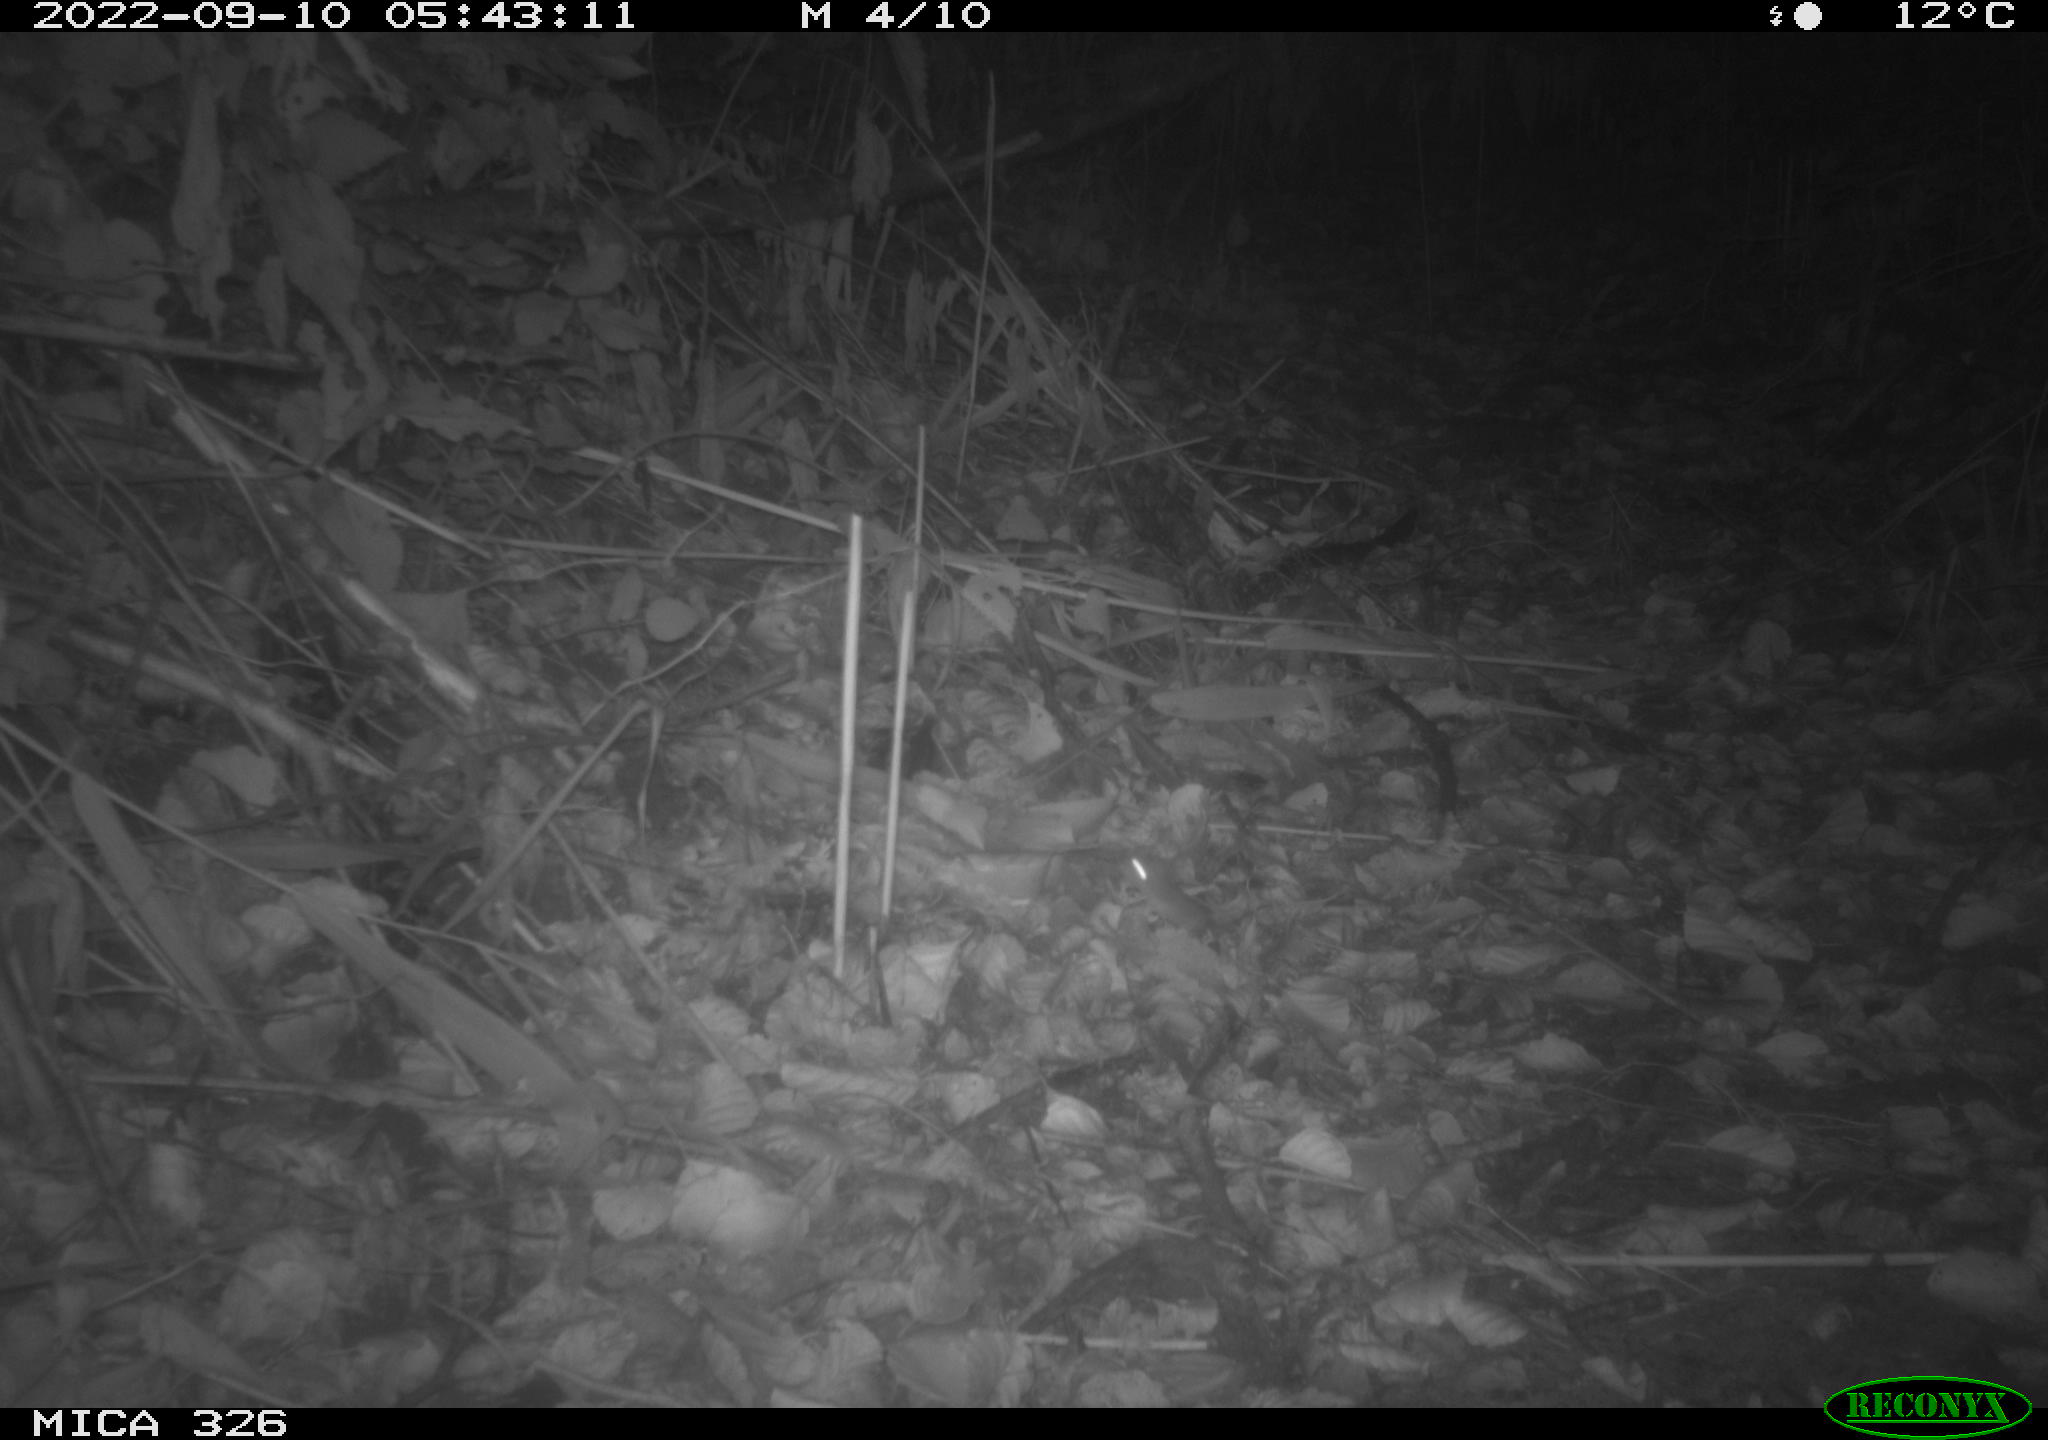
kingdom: Animalia
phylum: Chordata
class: Mammalia
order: Rodentia
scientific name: Rodentia
